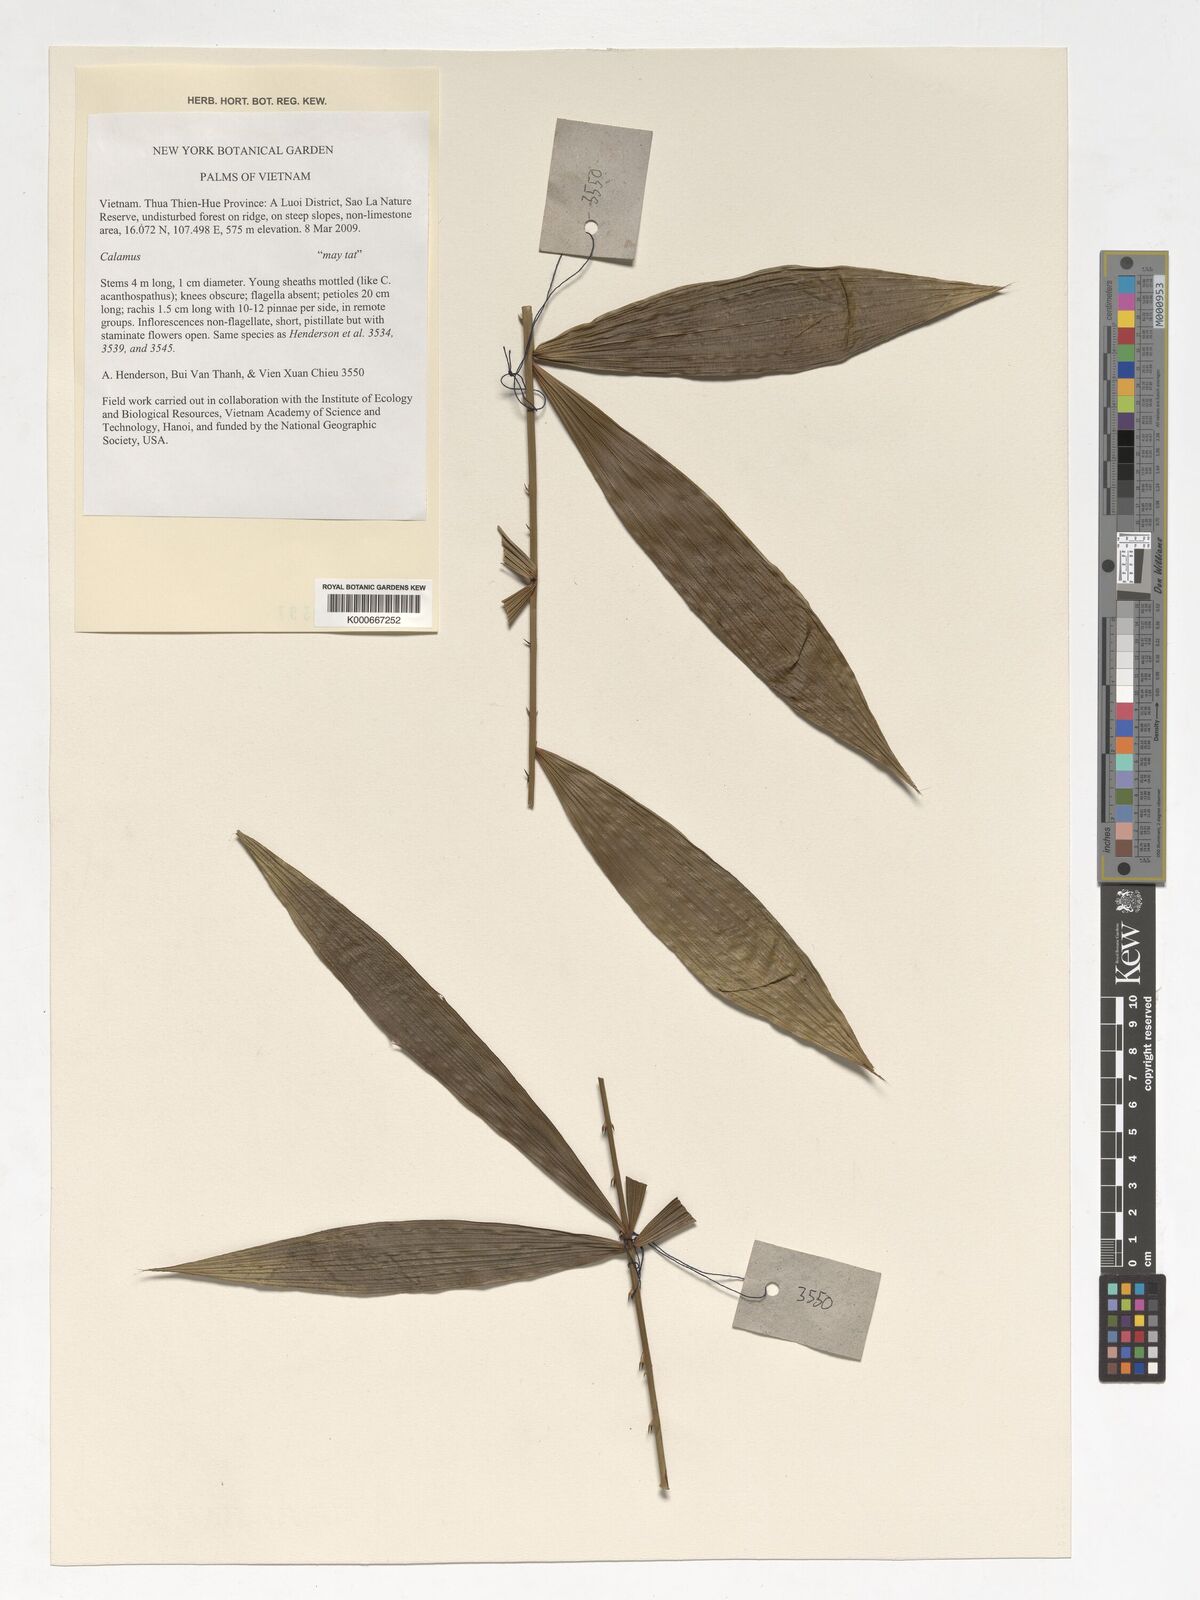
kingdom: Plantae
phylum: Tracheophyta
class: Liliopsida
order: Arecales
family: Arecaceae
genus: Calamus
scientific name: Calamus
